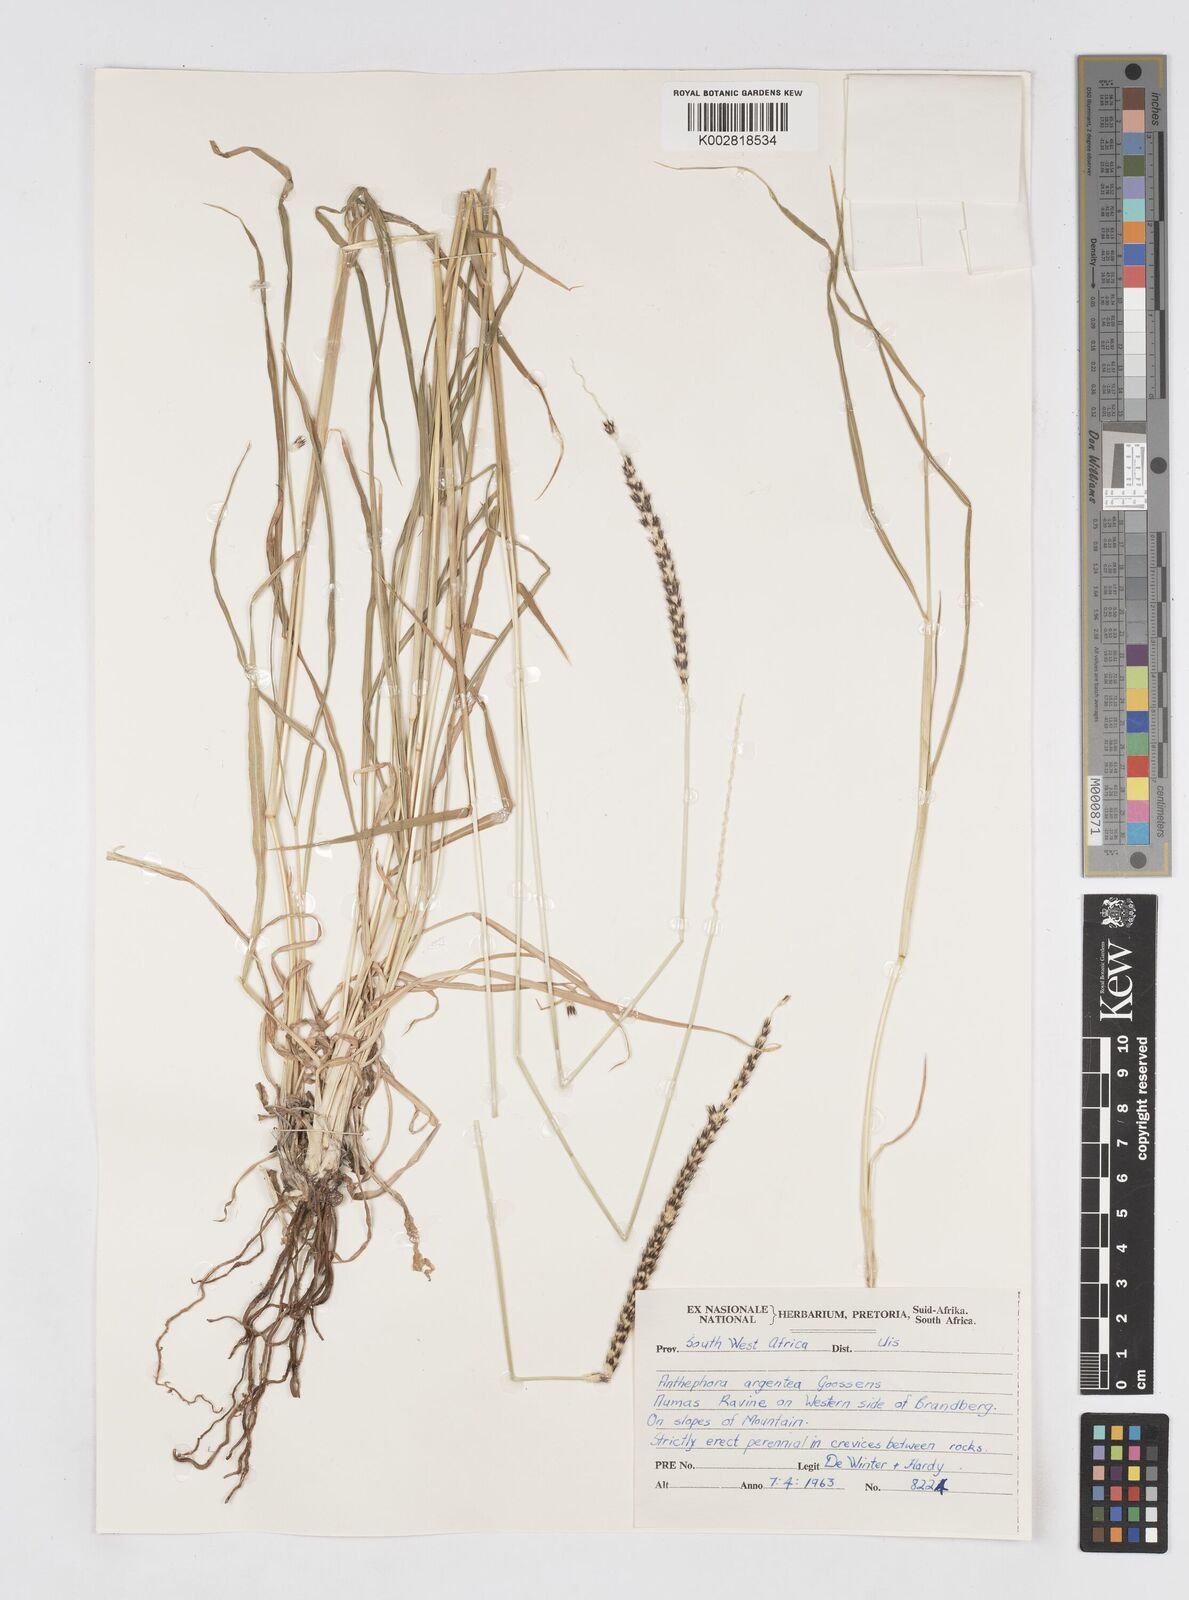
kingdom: Plantae
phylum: Tracheophyta
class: Liliopsida
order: Poales
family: Poaceae
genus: Anthephora
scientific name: Anthephora pubescens
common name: Wool grass
